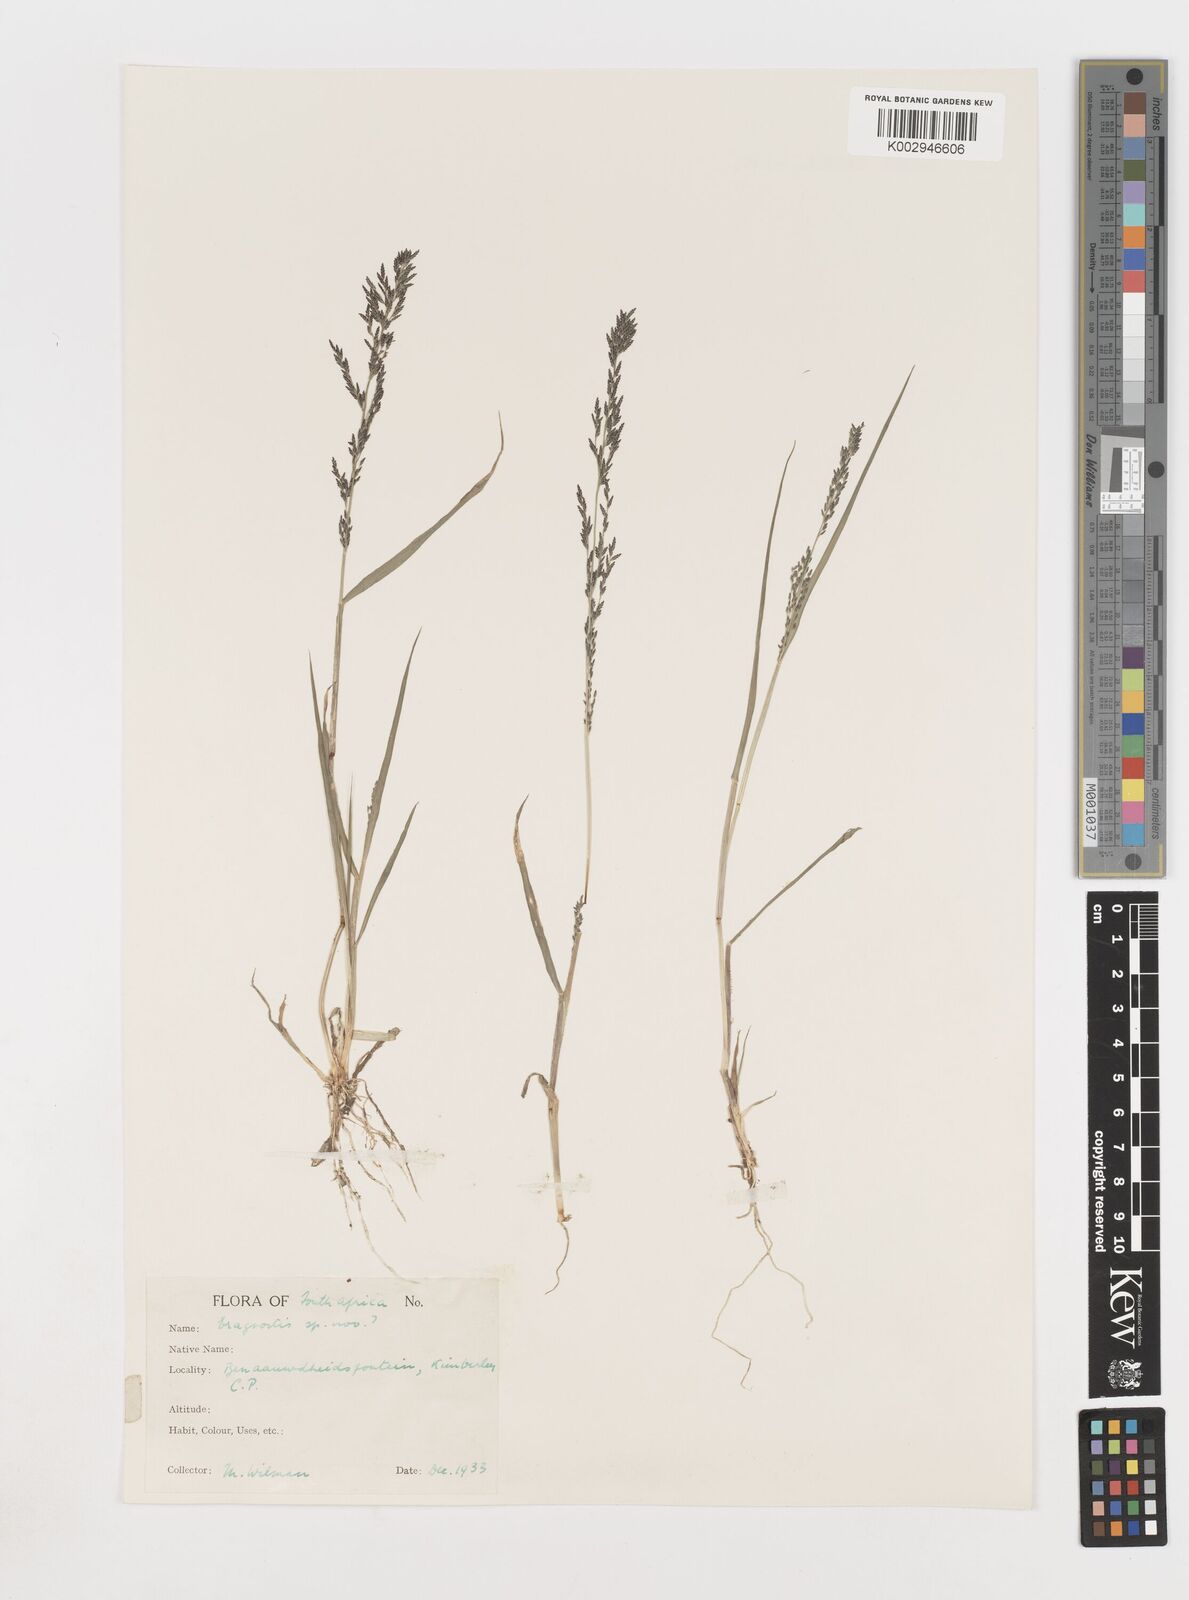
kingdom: Plantae
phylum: Tracheophyta
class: Liliopsida
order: Poales
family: Poaceae
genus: Eragrostis
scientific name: Eragrostis homomalla
